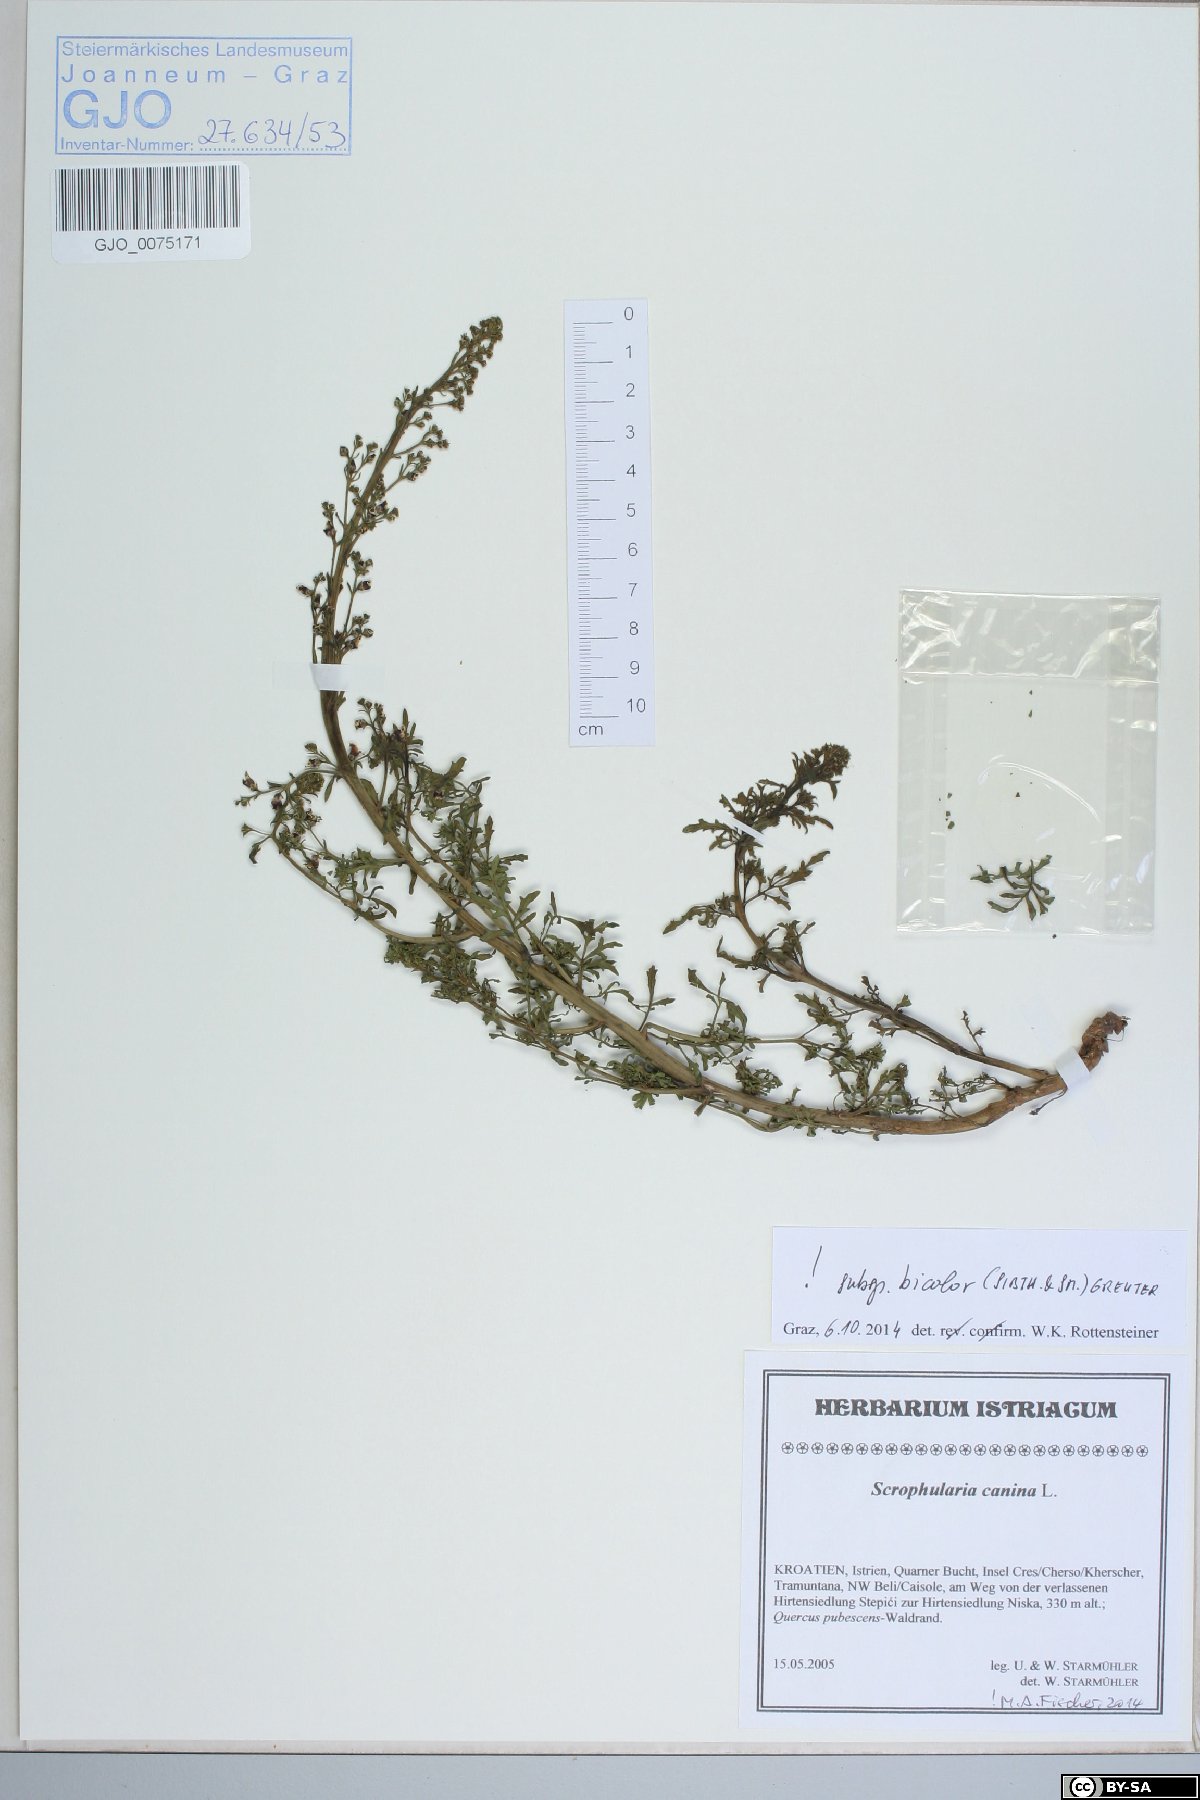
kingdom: Plantae
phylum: Tracheophyta
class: Magnoliopsida
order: Lamiales
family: Scrophulariaceae
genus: Scrophularia
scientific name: Scrophularia canina
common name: French figwort
